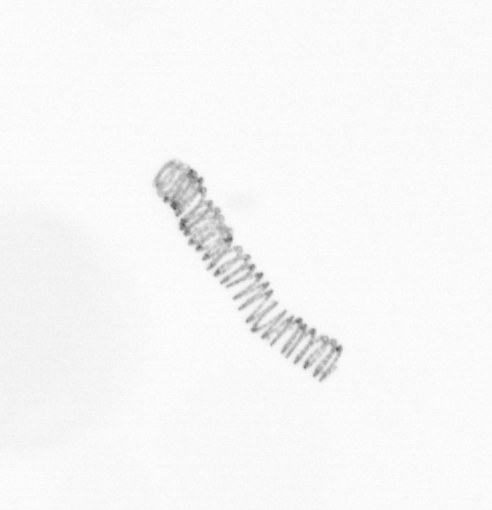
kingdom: Chromista
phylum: Ochrophyta
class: Bacillariophyceae
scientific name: Bacillariophyceae
